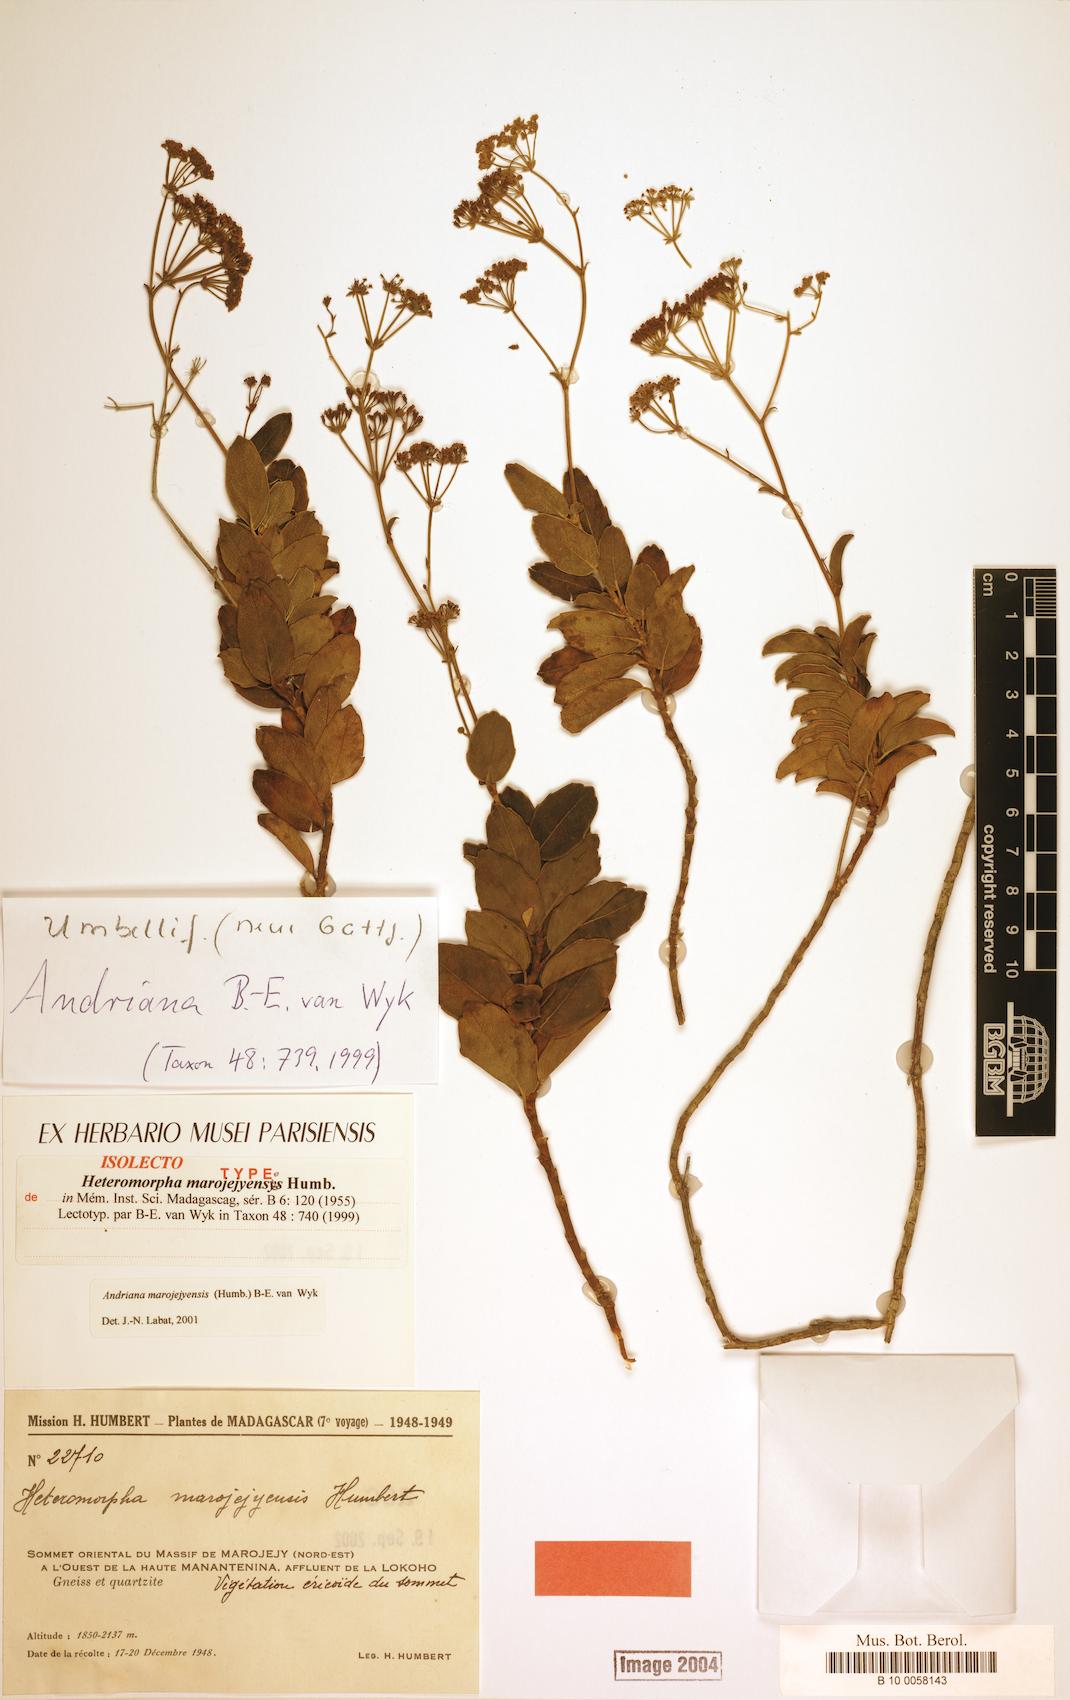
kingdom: Plantae
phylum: Tracheophyta
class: Magnoliopsida
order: Apiales
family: Apiaceae
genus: Andriana
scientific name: Andriana marojejyensis
